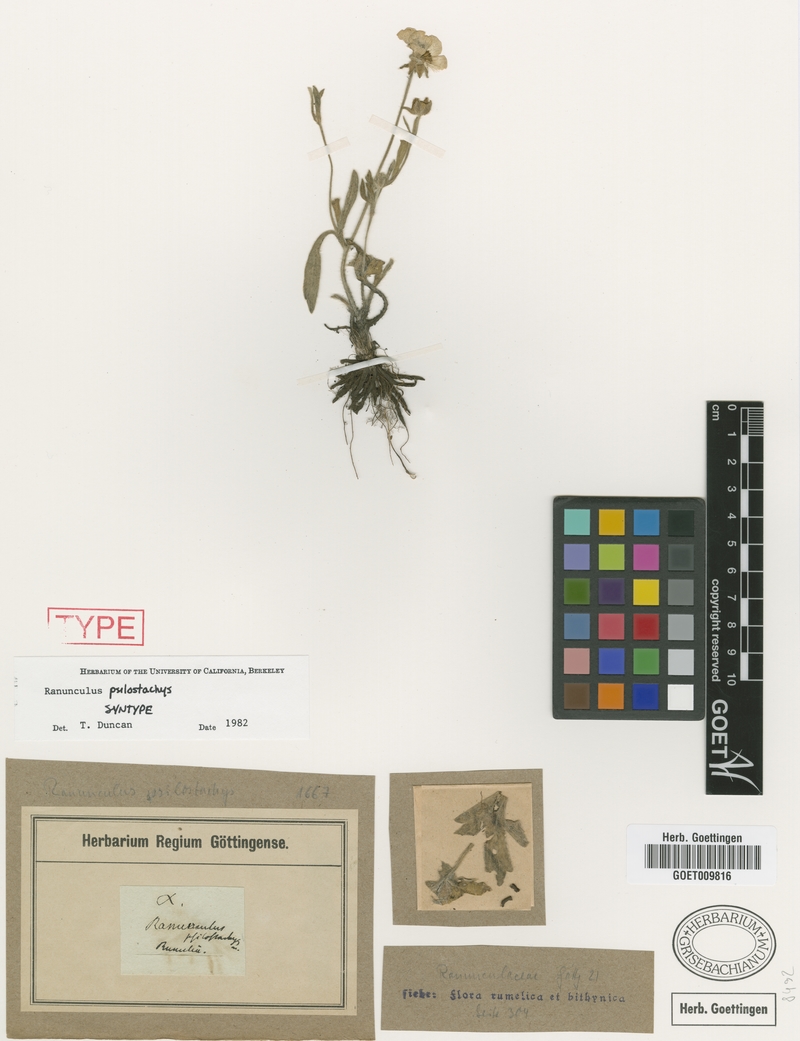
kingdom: Plantae
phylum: Tracheophyta
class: Magnoliopsida
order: Ranunculales
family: Ranunculaceae
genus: Ranunculus
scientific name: Ranunculus psilostachys
